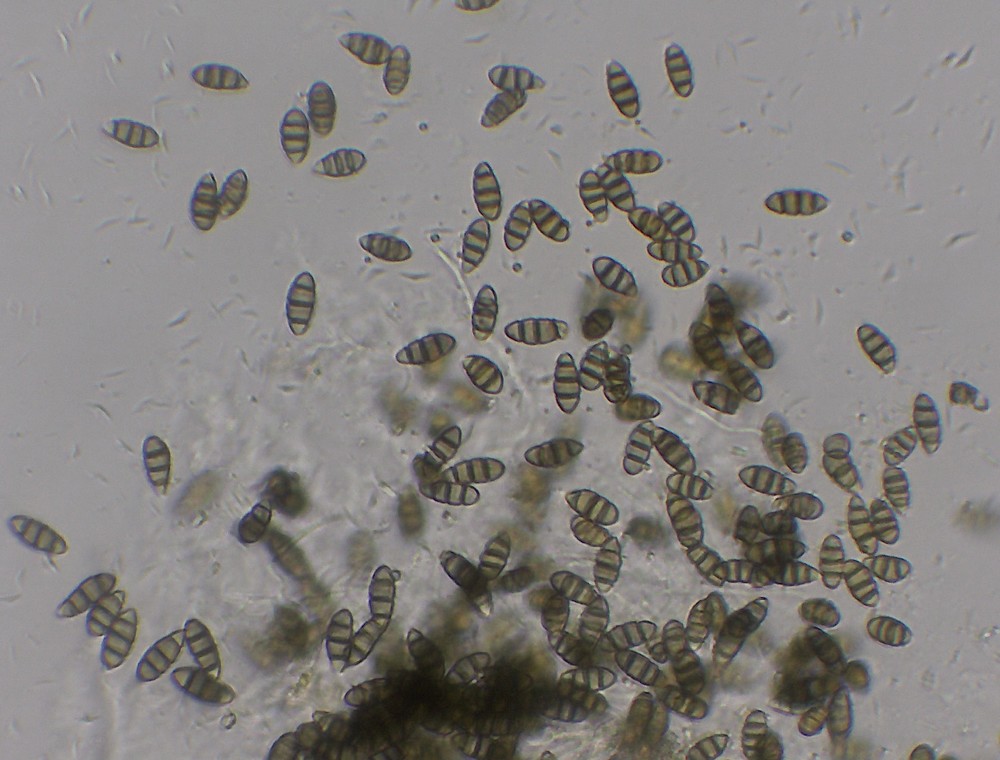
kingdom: Fungi
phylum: Ascomycota
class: Sordariomycetes
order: Amphisphaeriales
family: Sporocadaceae
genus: Discostroma
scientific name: Discostroma corticola
